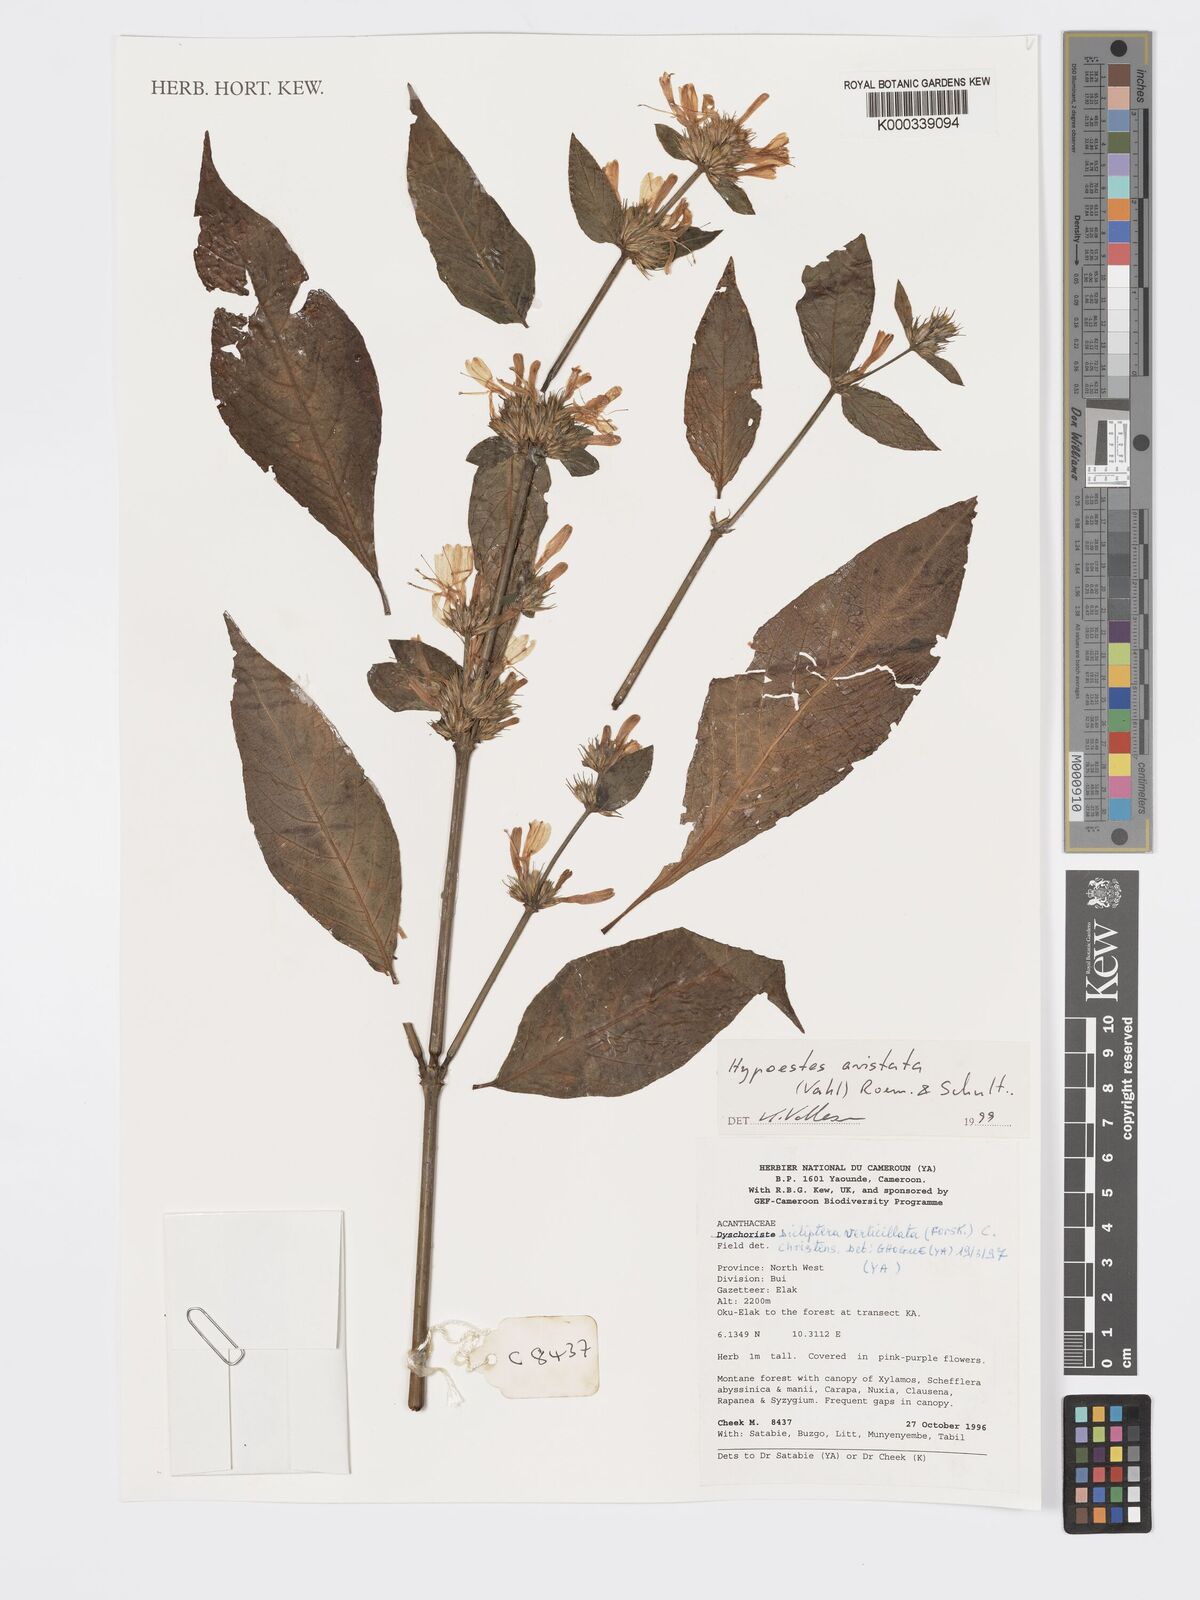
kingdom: Plantae
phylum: Tracheophyta
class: Magnoliopsida
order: Lamiales
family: Acanthaceae
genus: Hypoestes
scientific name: Hypoestes aristata
